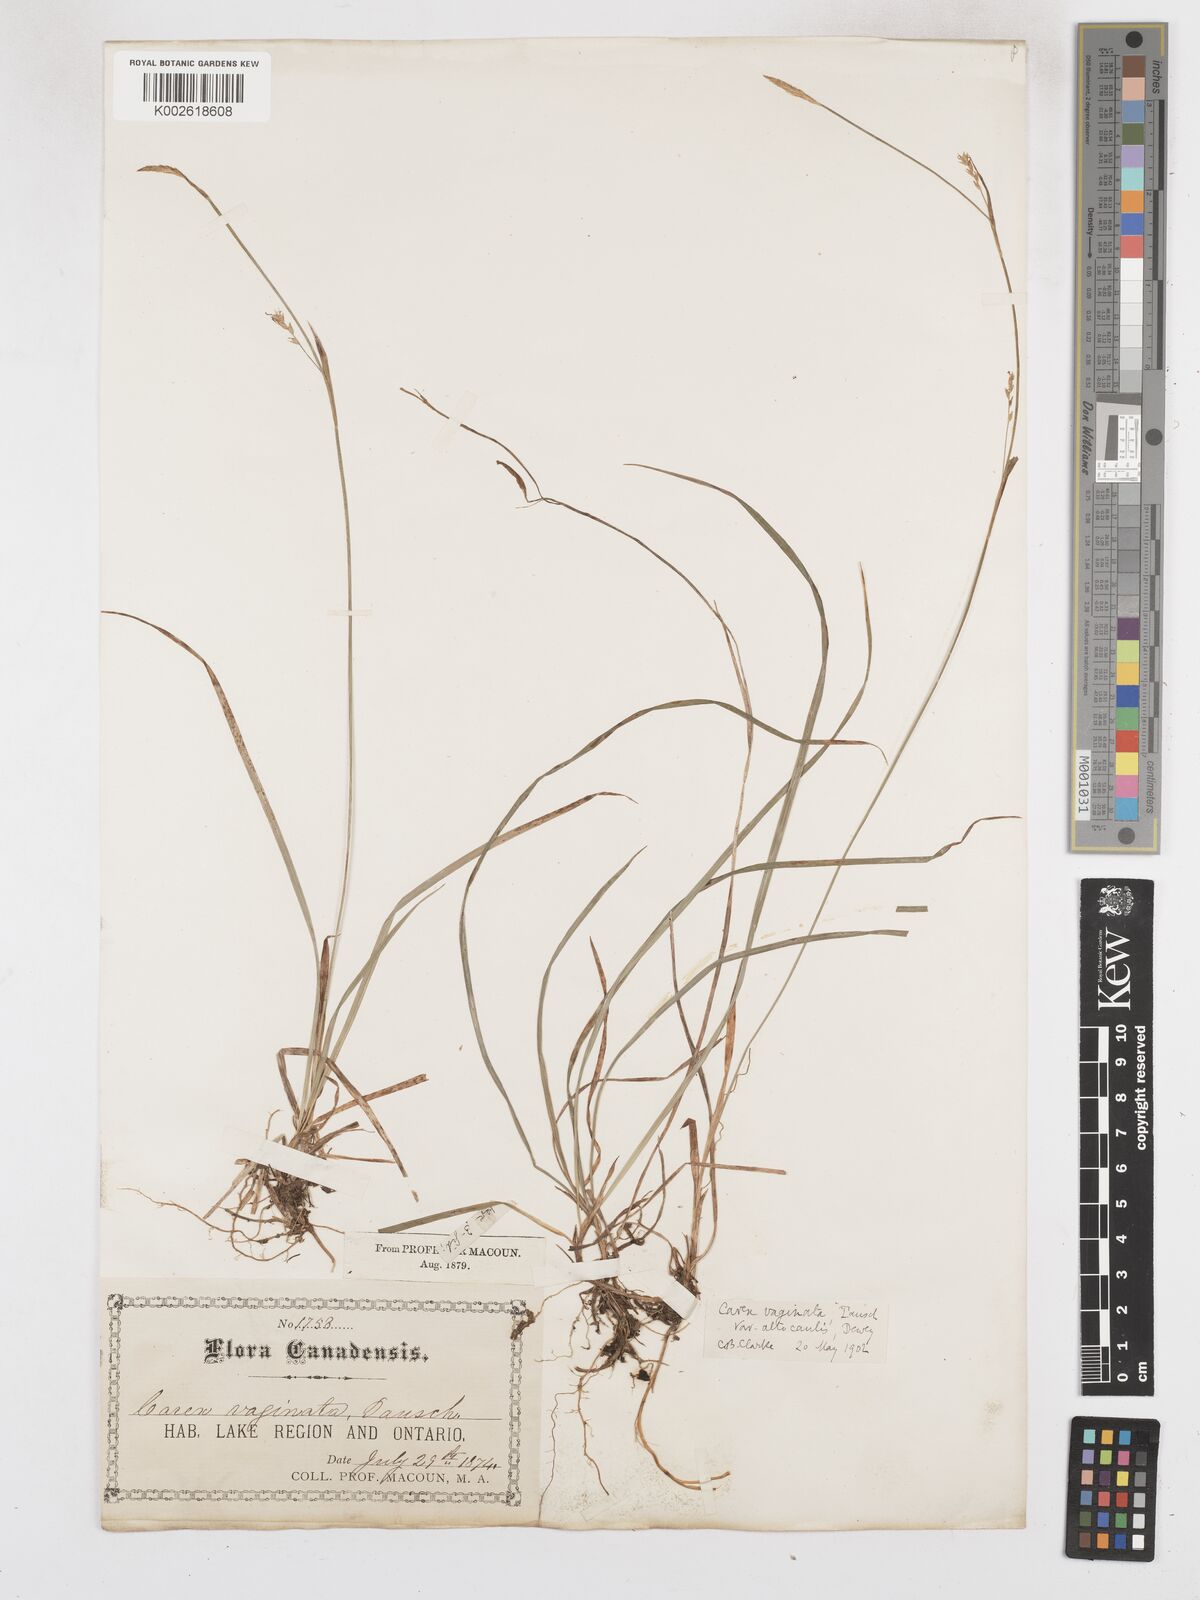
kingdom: Plantae
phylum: Tracheophyta
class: Liliopsida
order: Poales
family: Cyperaceae
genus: Carex
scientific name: Carex vaginata
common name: Sheathed sedge
